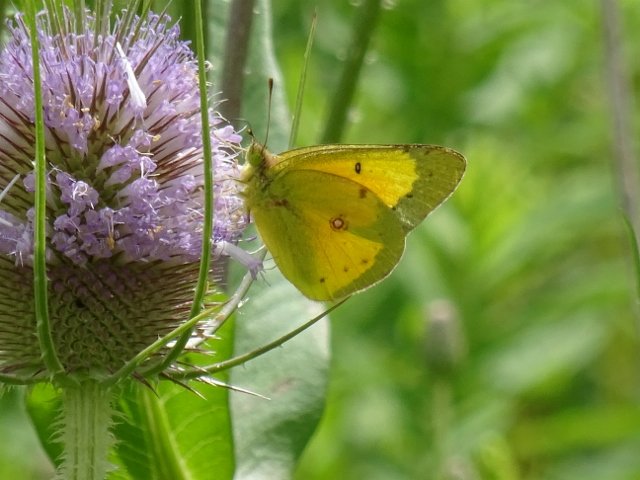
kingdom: Animalia
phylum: Arthropoda
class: Insecta
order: Lepidoptera
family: Pieridae
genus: Colias
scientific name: Colias eurytheme
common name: Orange Sulphur
